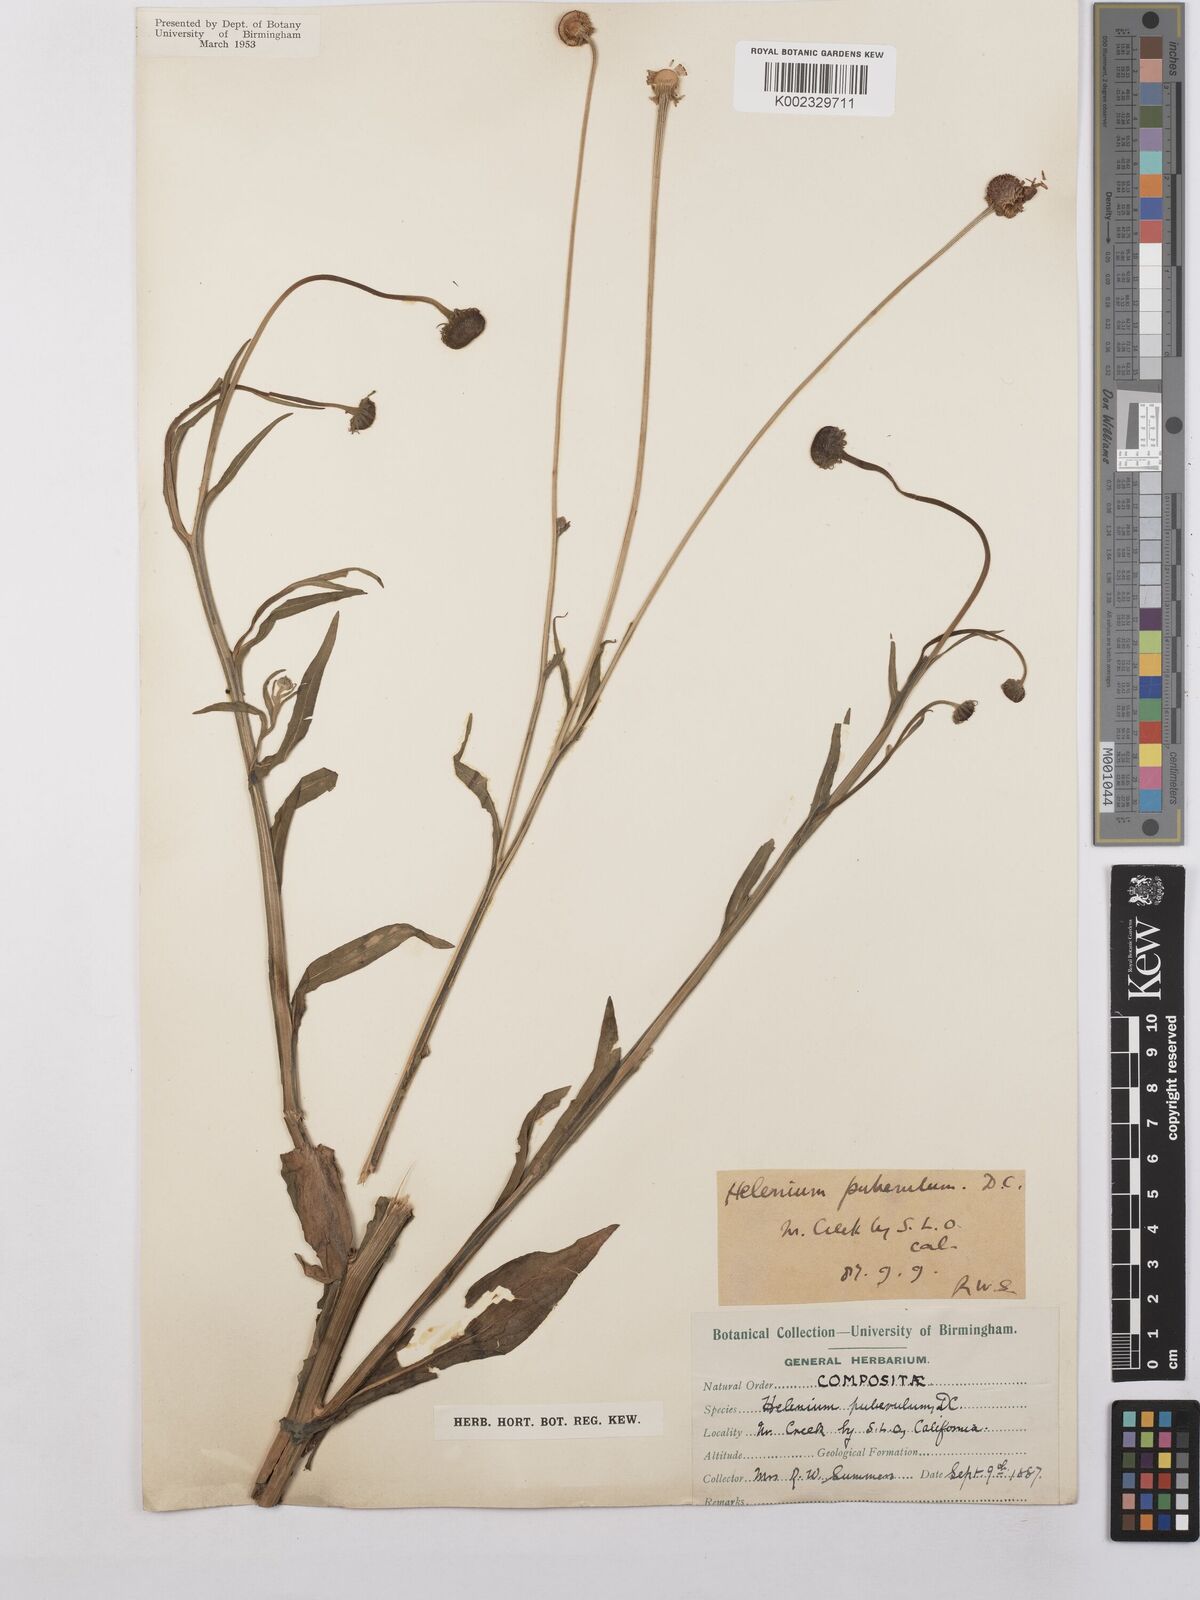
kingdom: Plantae
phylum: Tracheophyta
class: Magnoliopsida
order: Asterales
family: Asteraceae
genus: Helenium
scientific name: Helenium puberulum
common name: Sneezewort
